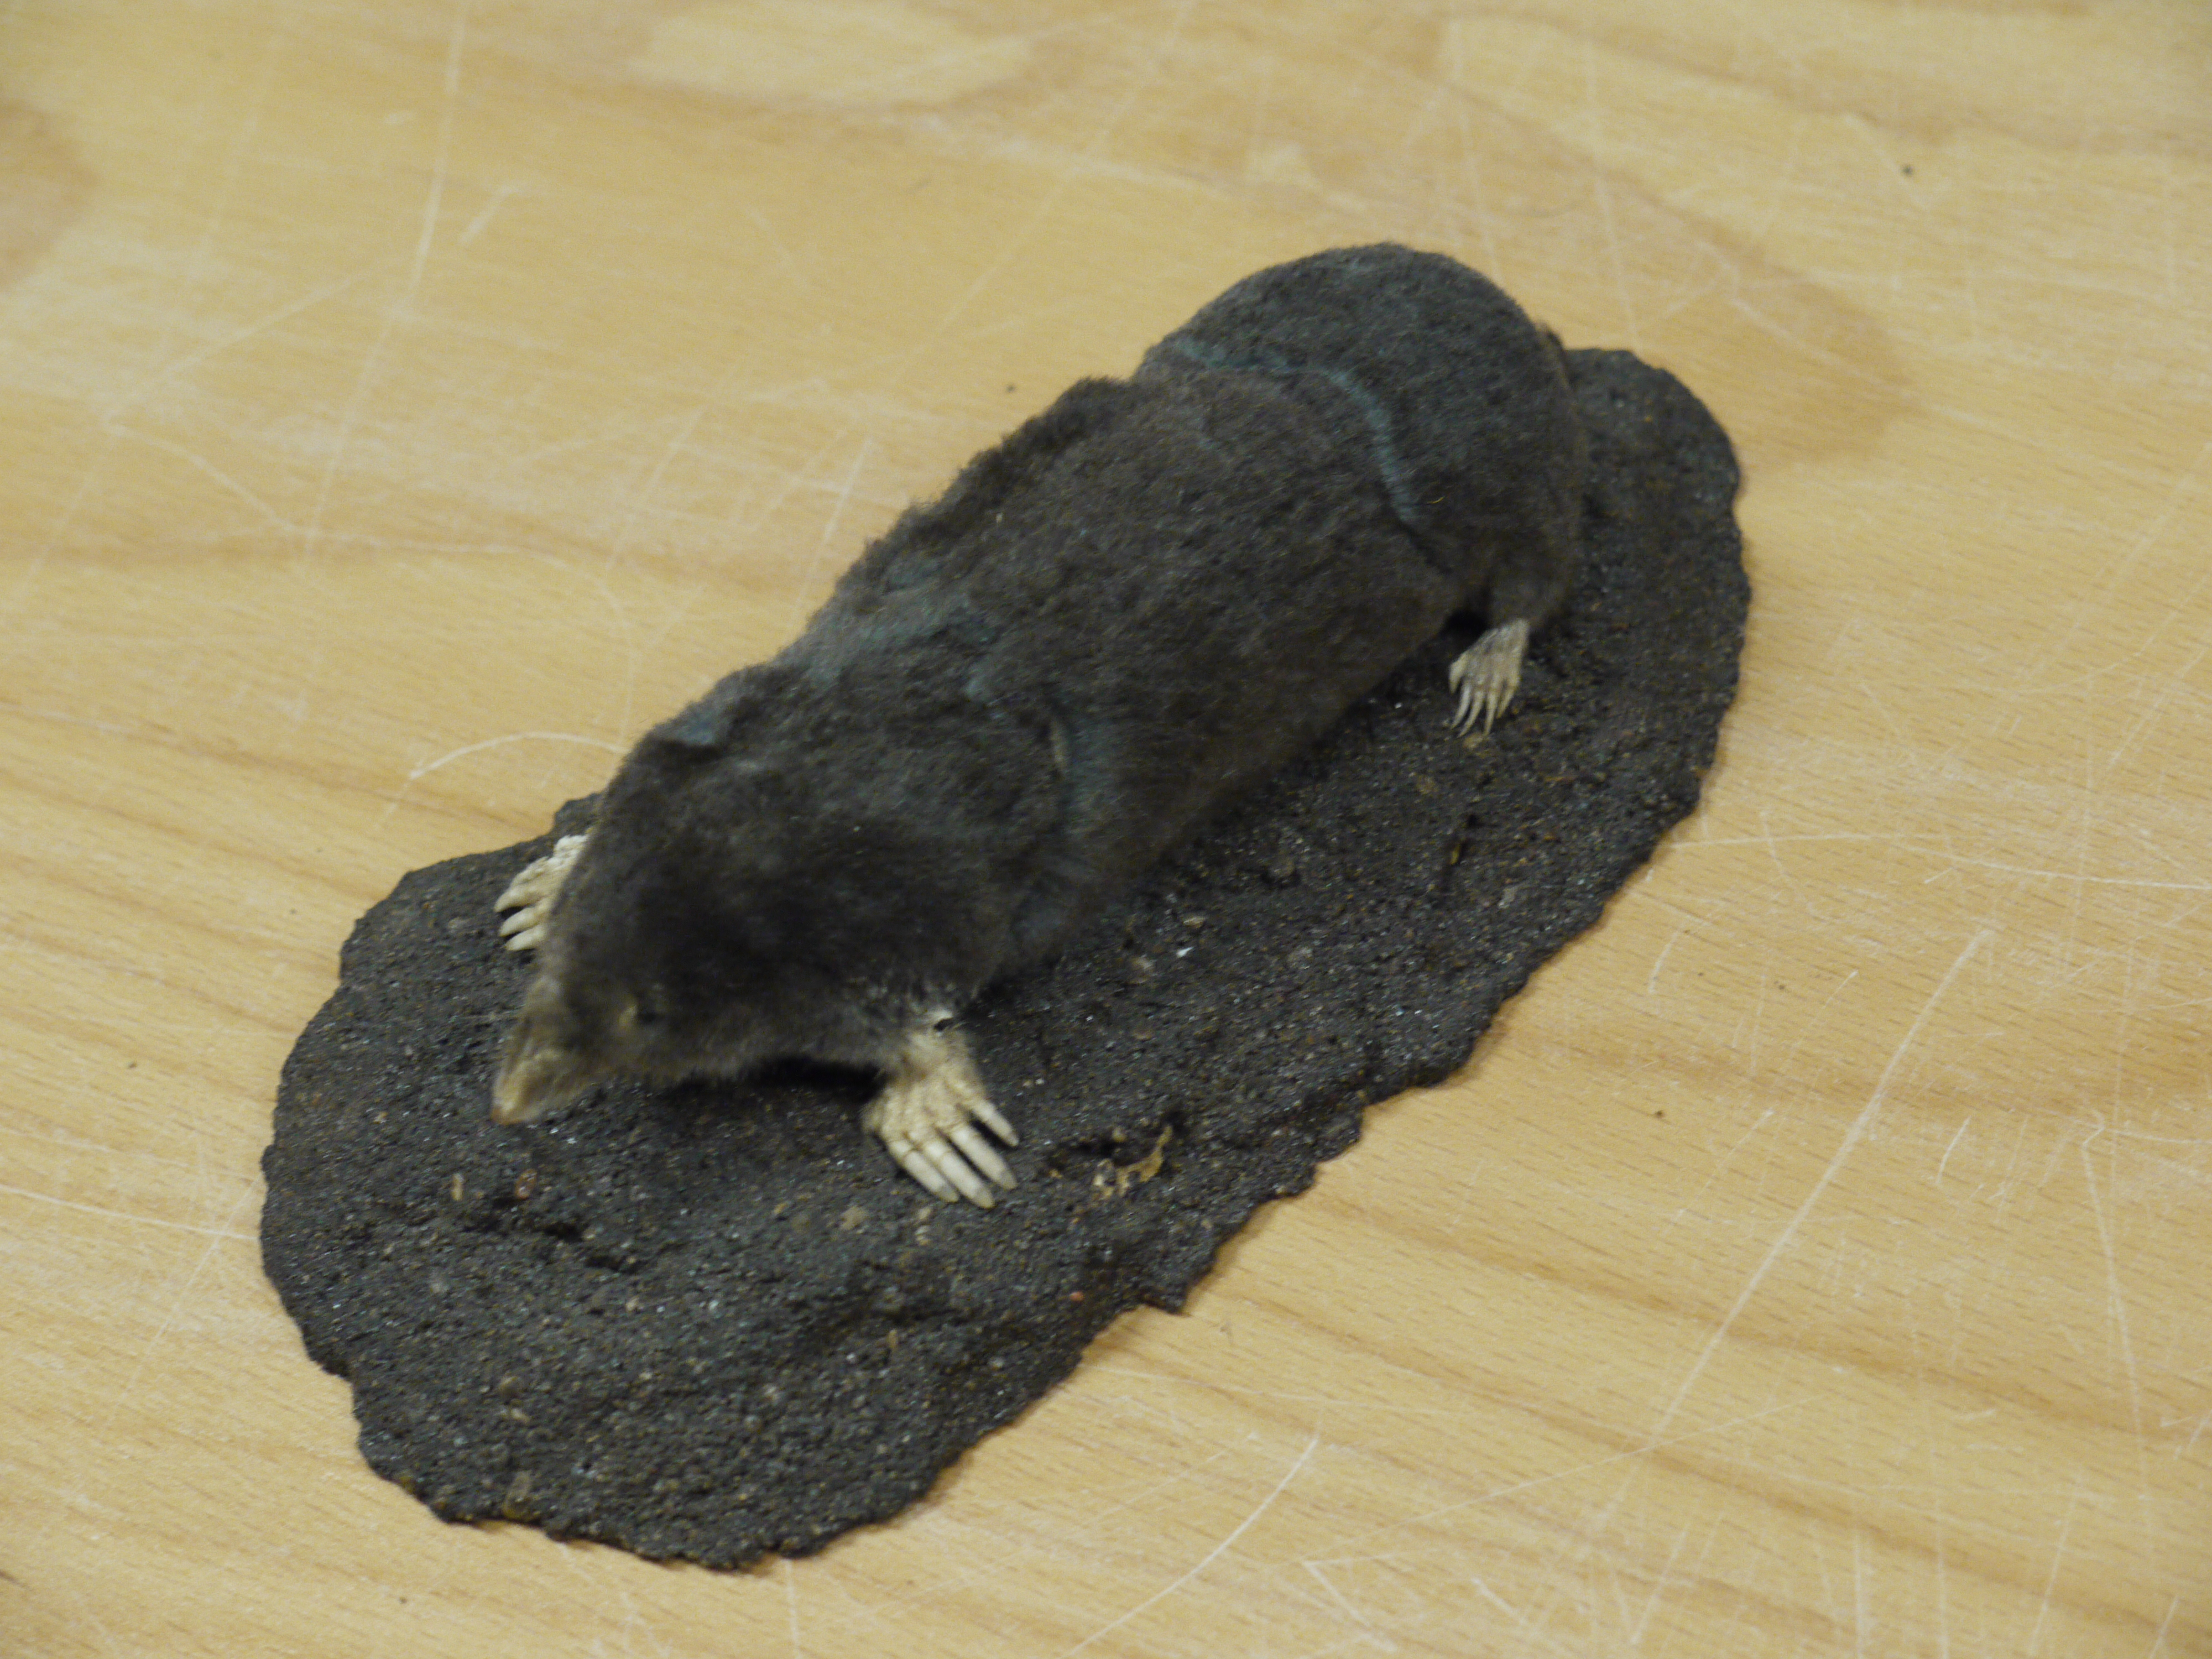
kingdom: Animalia
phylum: Chordata
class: Mammalia
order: Soricomorpha
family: Talpidae
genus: Talpa
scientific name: Talpa europaea
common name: European mole
